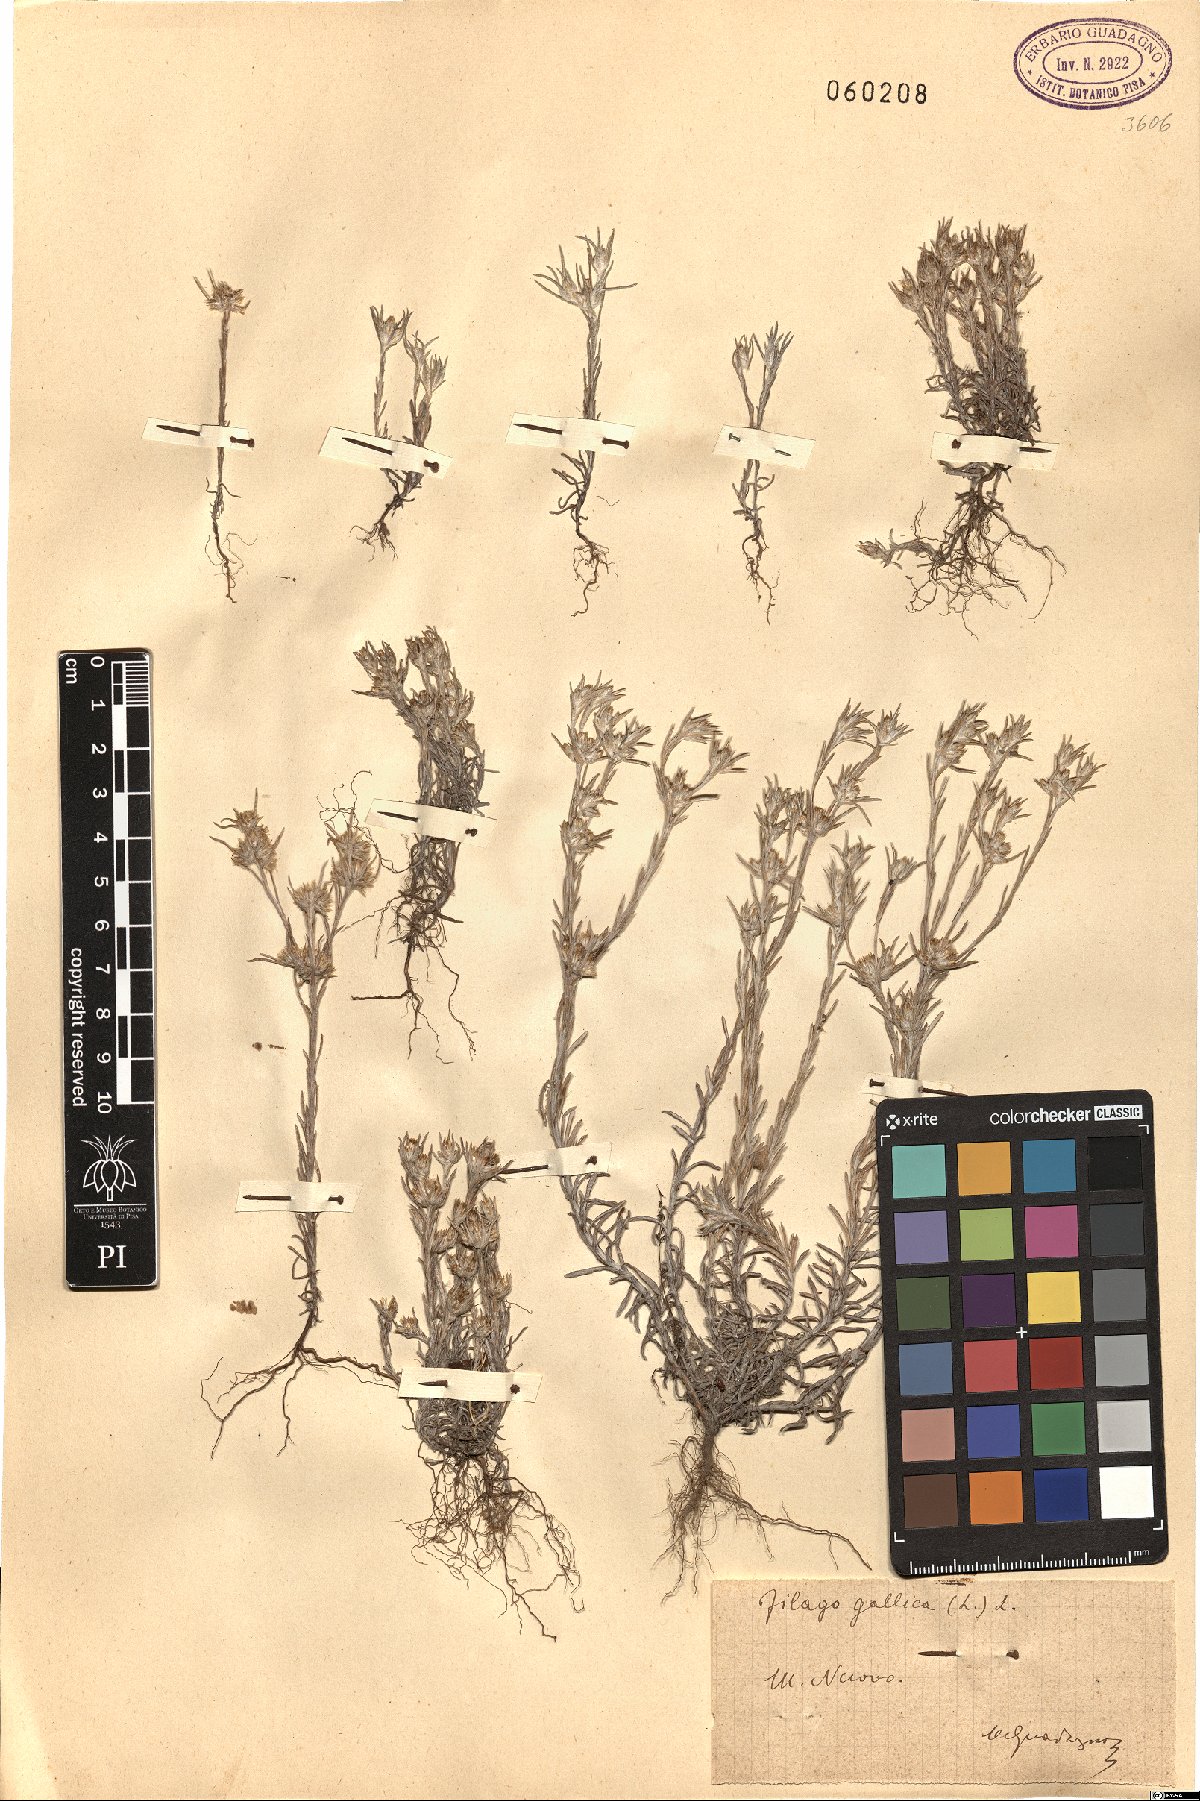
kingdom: Plantae
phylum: Tracheophyta
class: Magnoliopsida
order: Asterales
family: Asteraceae
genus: Logfia
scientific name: Logfia gallica
